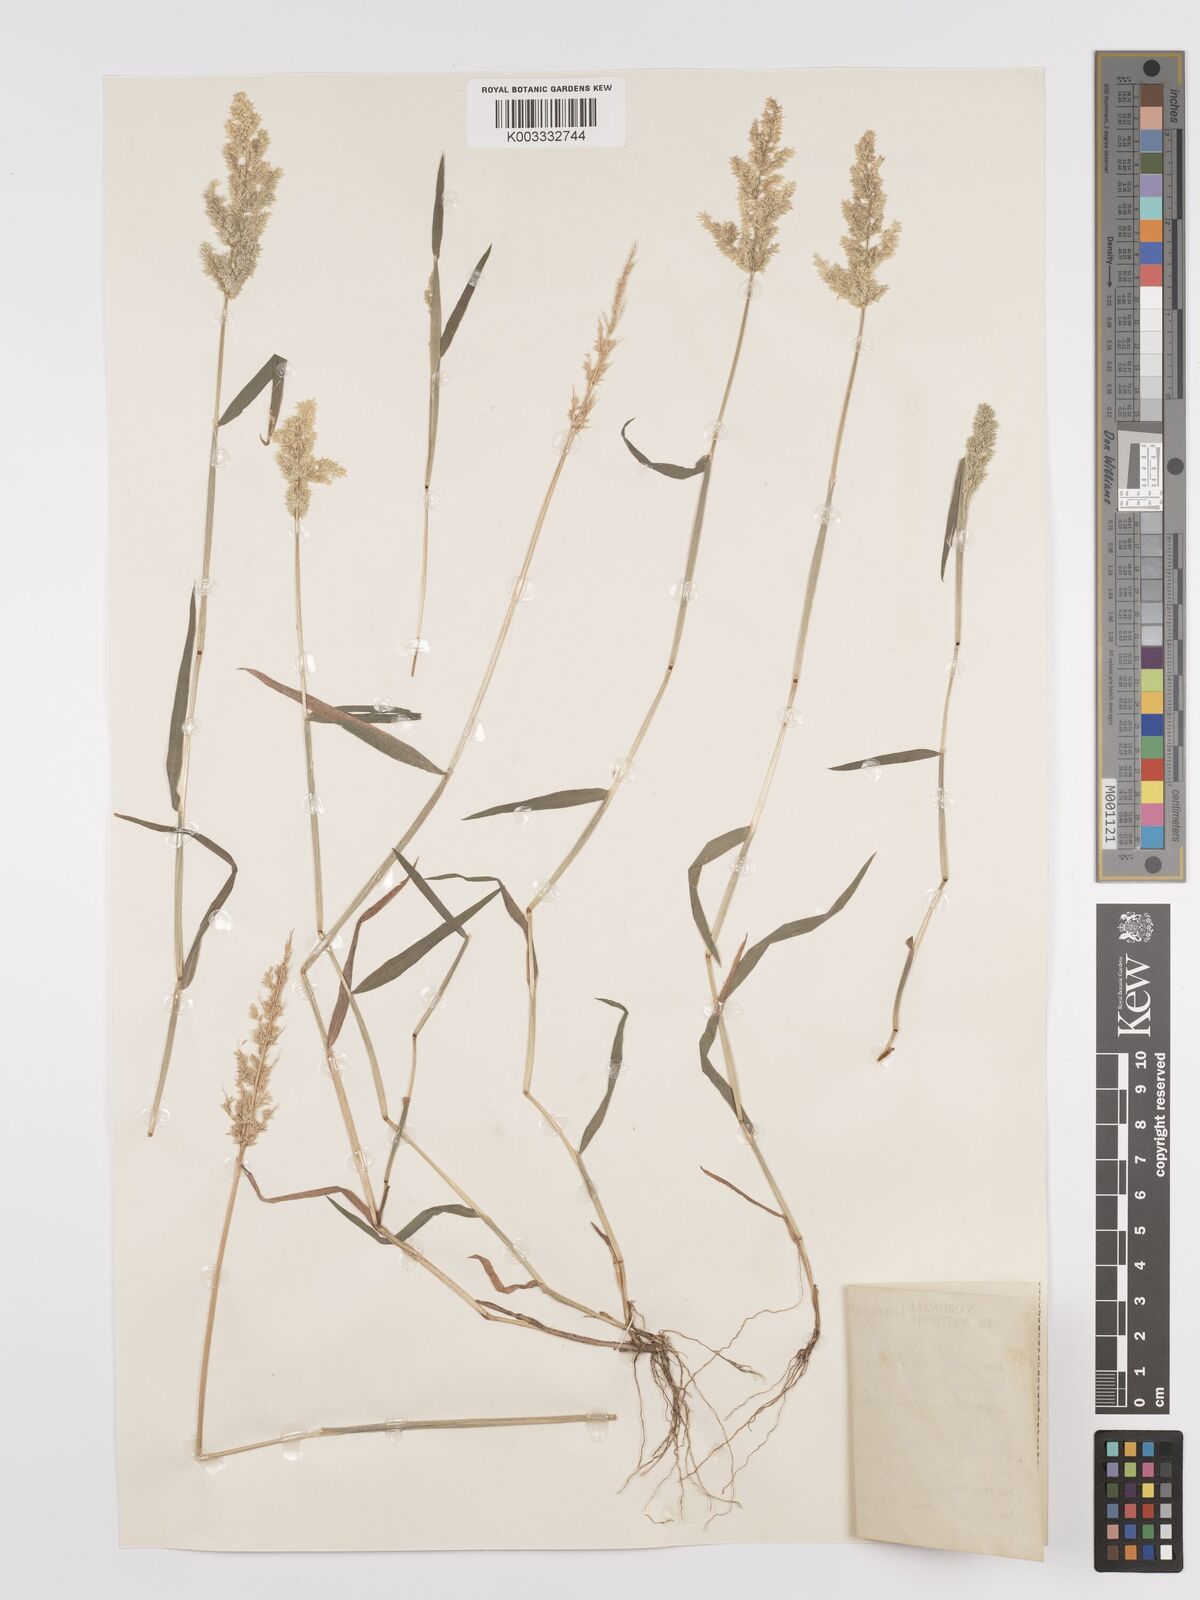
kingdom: Plantae
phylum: Tracheophyta
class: Liliopsida
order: Poales
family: Poaceae
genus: Polypogon
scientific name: Polypogon viridis
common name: Water bent
